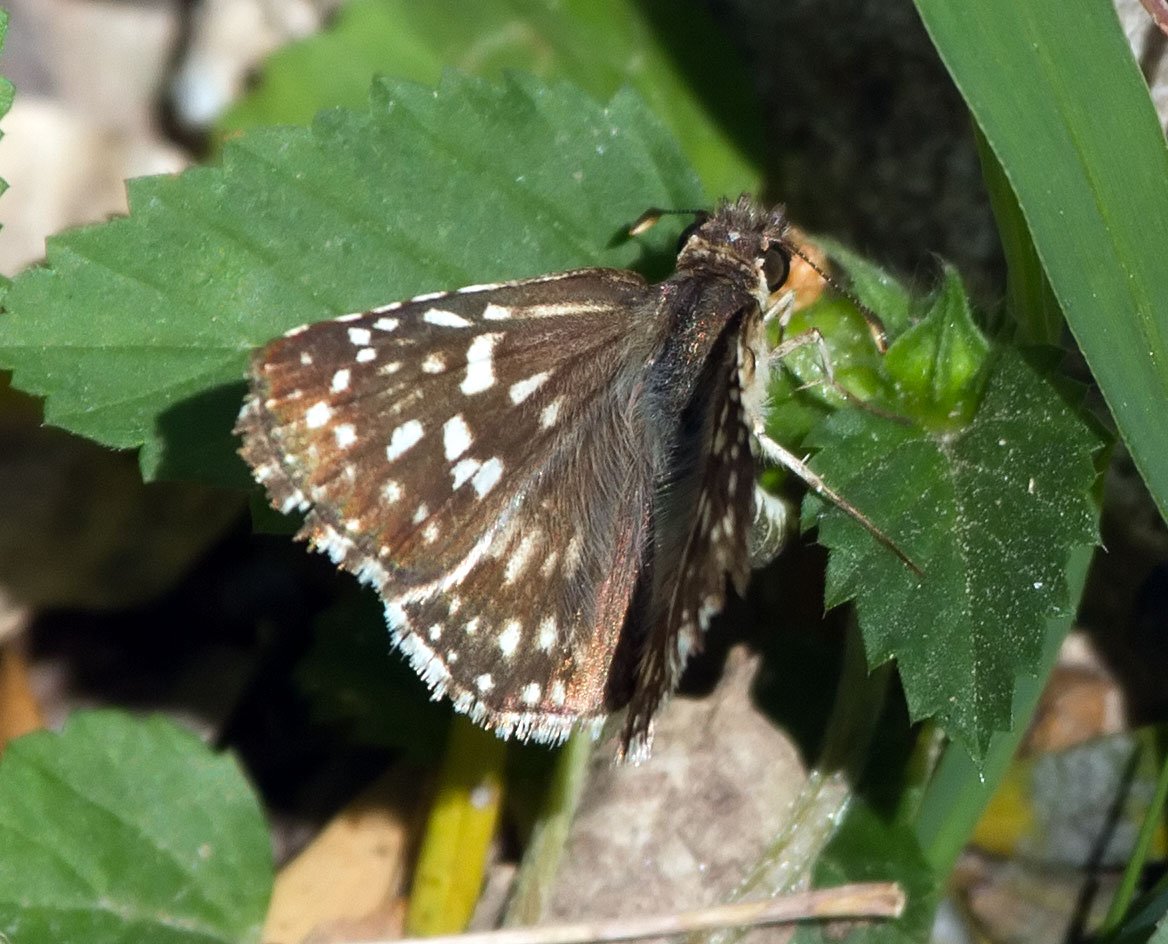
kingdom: Animalia
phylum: Arthropoda
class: Insecta
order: Lepidoptera
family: Hesperiidae
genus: Pyrgus
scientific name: Pyrgus oileus
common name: Tropical Checkered-Skipper
